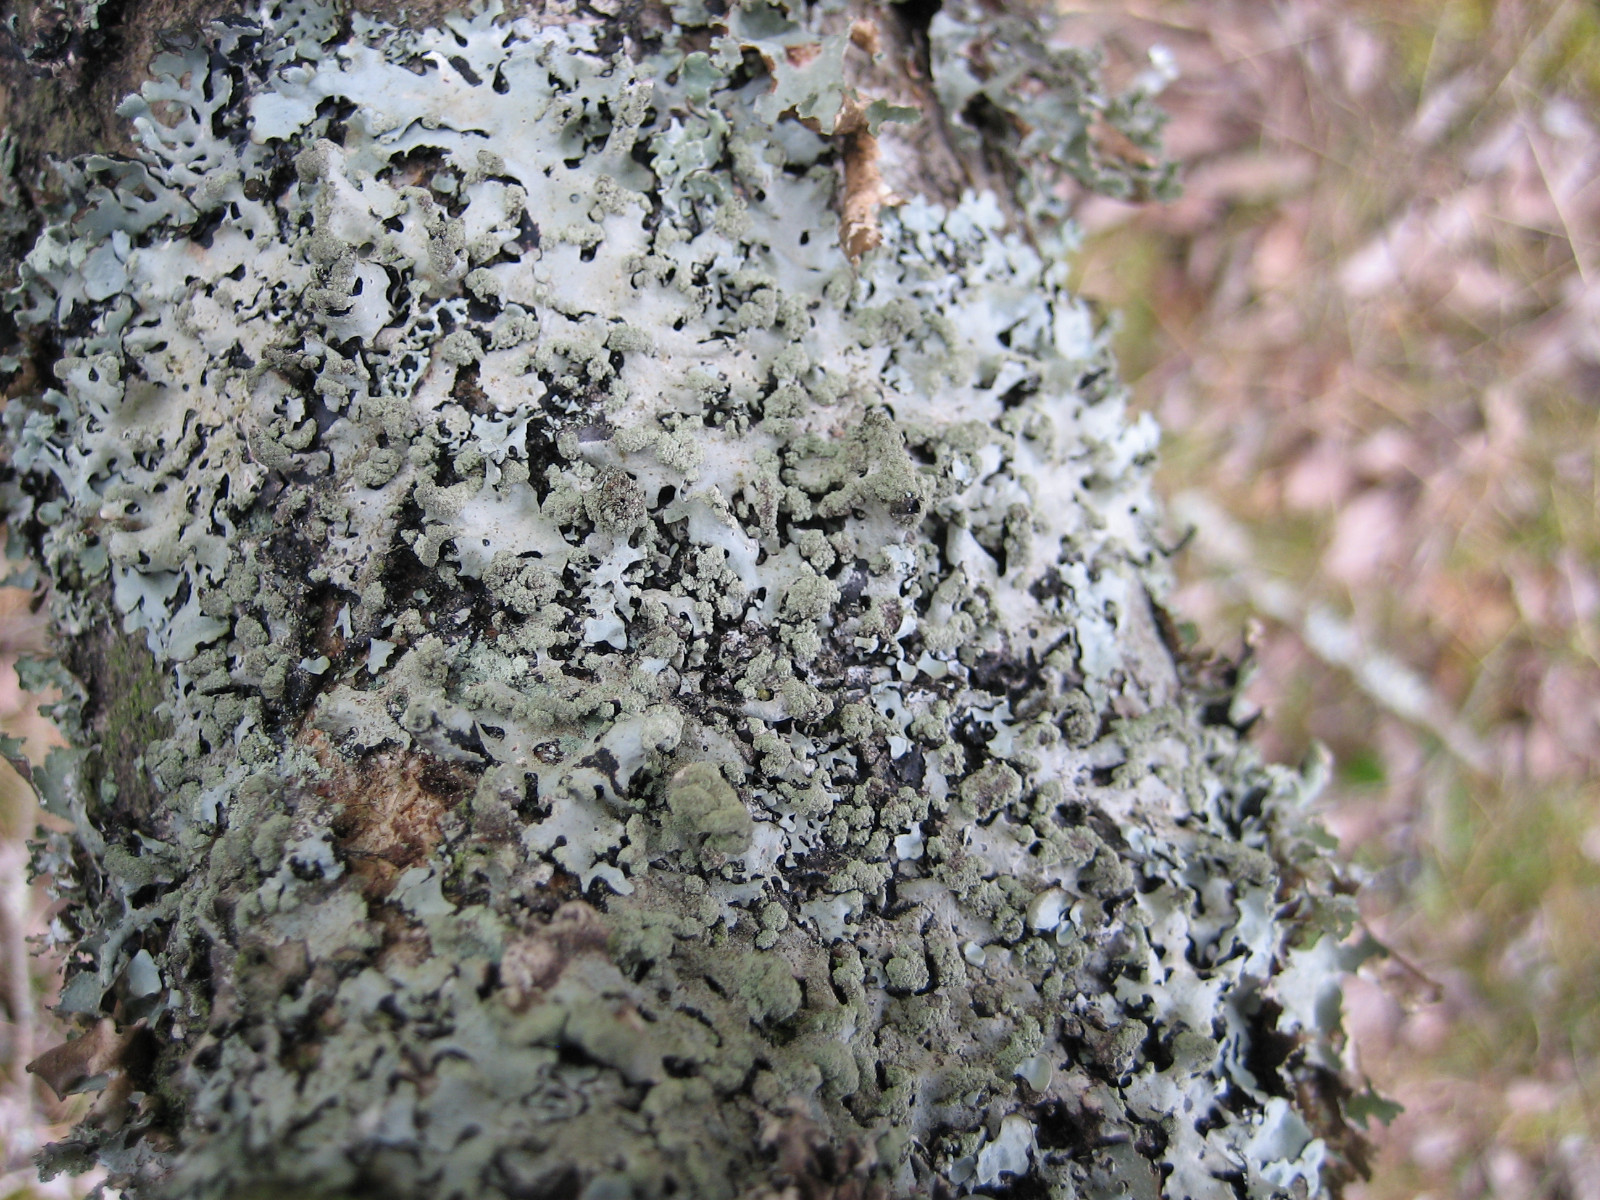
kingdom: Fungi
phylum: Ascomycota
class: Lecanoromycetes
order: Lecanorales
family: Parmeliaceae
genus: Hypotrachyna
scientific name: Hypotrachyna revoluta
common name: bleggrå skållav
